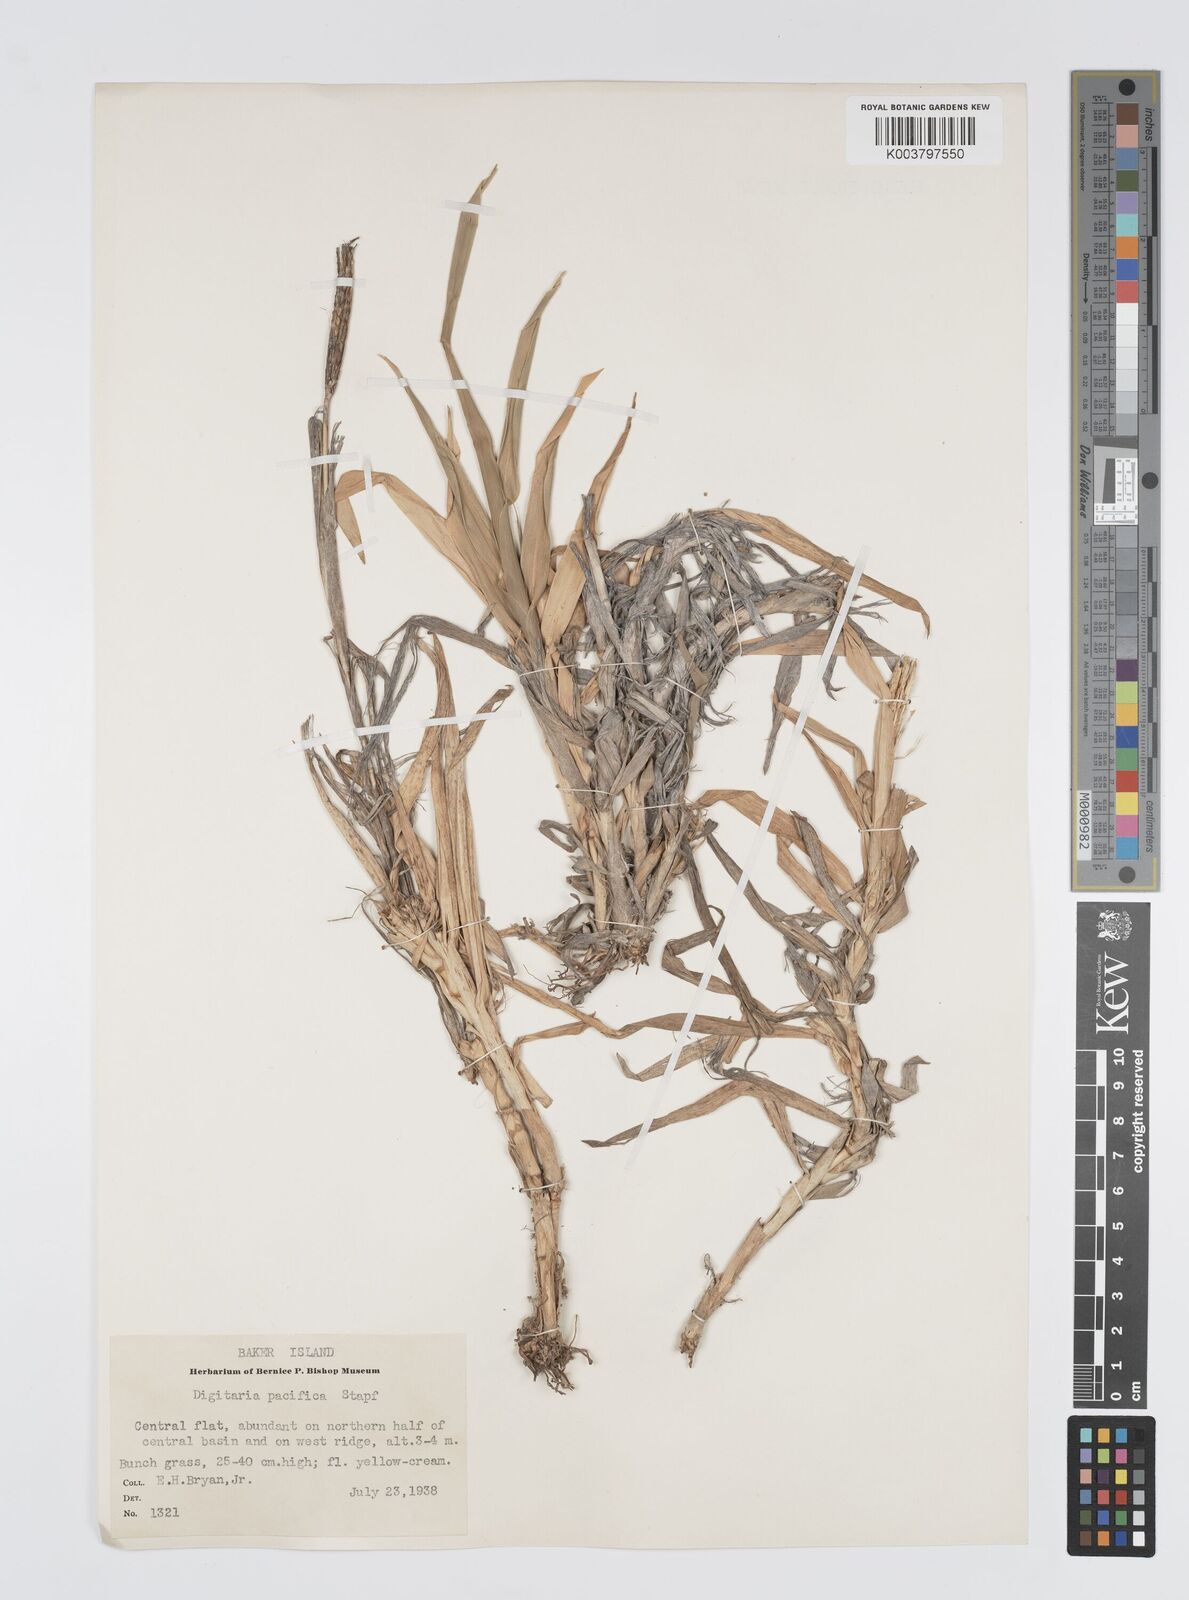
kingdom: Plantae
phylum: Tracheophyta
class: Liliopsida
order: Poales
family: Poaceae
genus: Digitaria
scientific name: Digitaria stenotaphrodes
